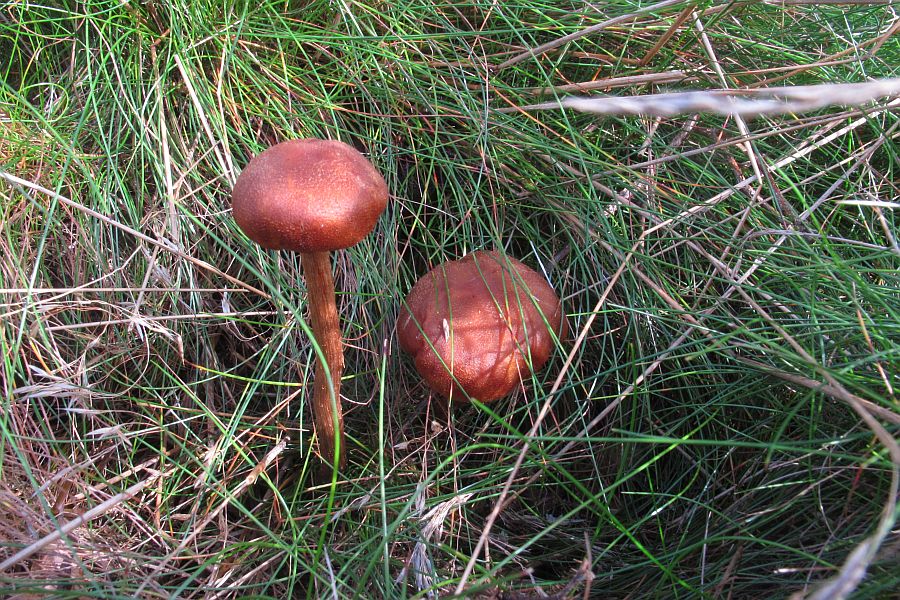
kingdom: Fungi
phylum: Basidiomycota
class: Agaricomycetes
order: Agaricales
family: Hydnangiaceae
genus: Laccaria
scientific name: Laccaria proxima
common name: stor ametysthat
